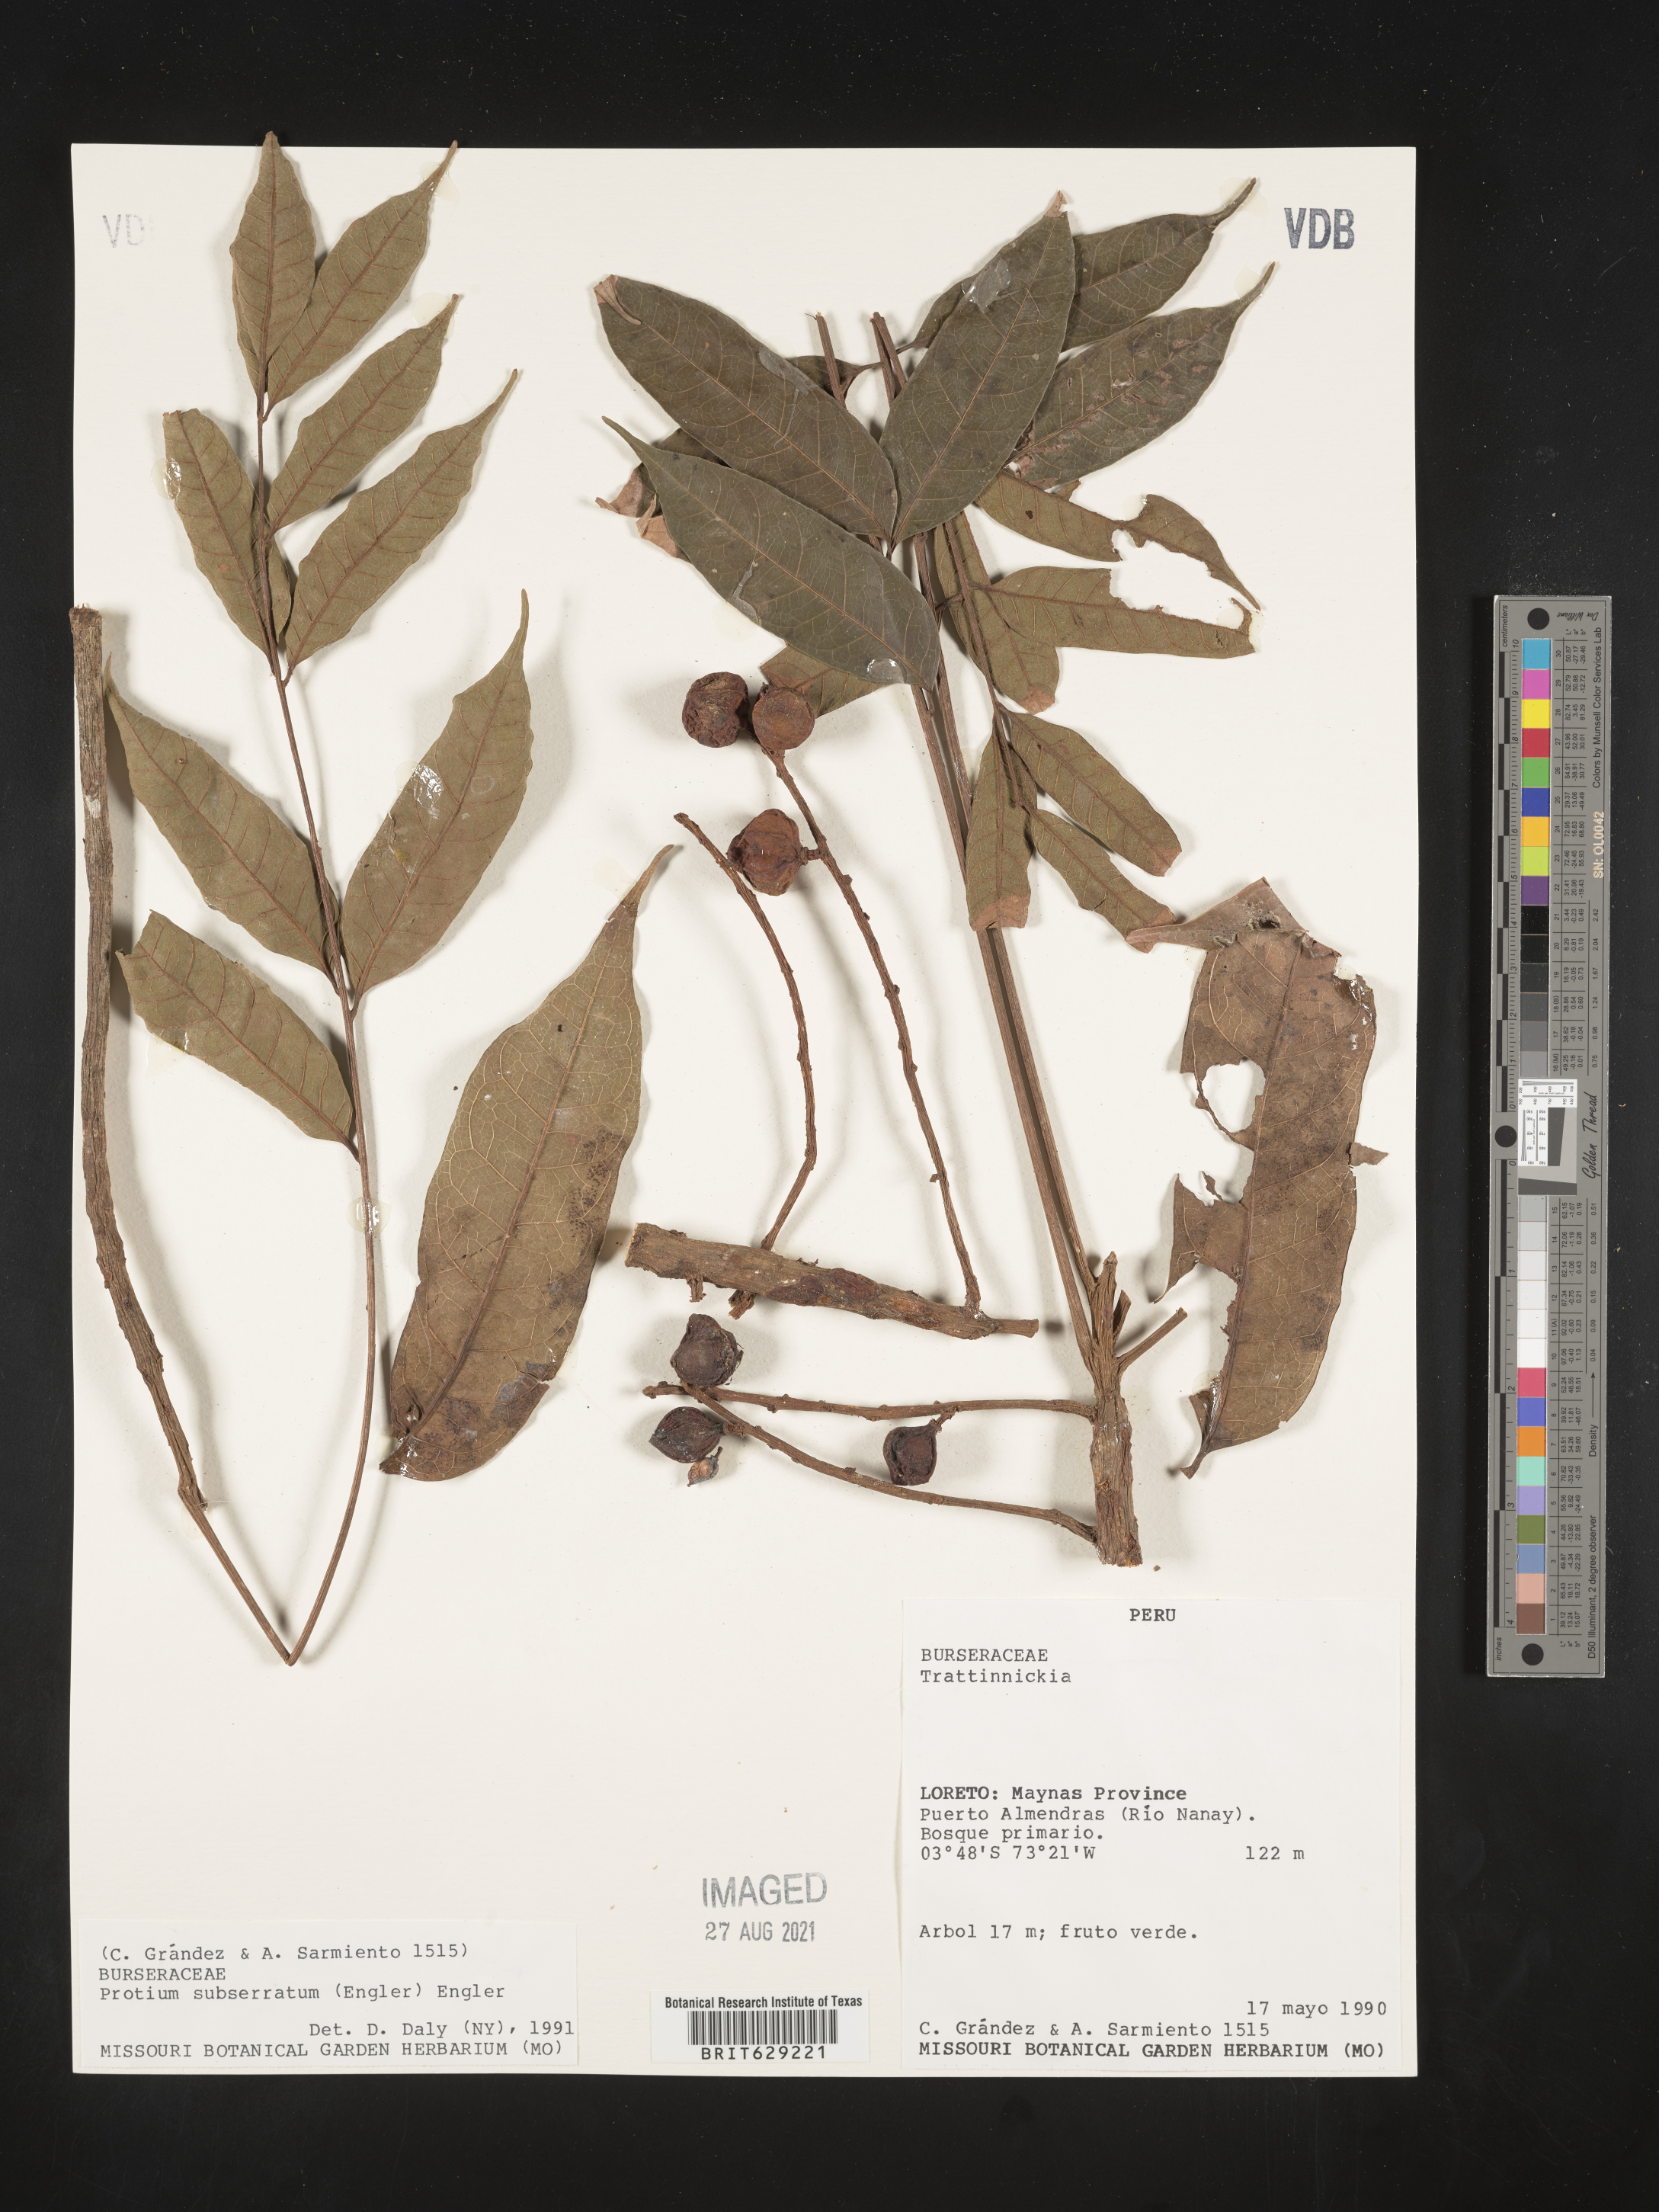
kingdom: Plantae
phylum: Tracheophyta
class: Magnoliopsida
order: Sapindales
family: Burseraceae
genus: Protium
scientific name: Protium subserratum
